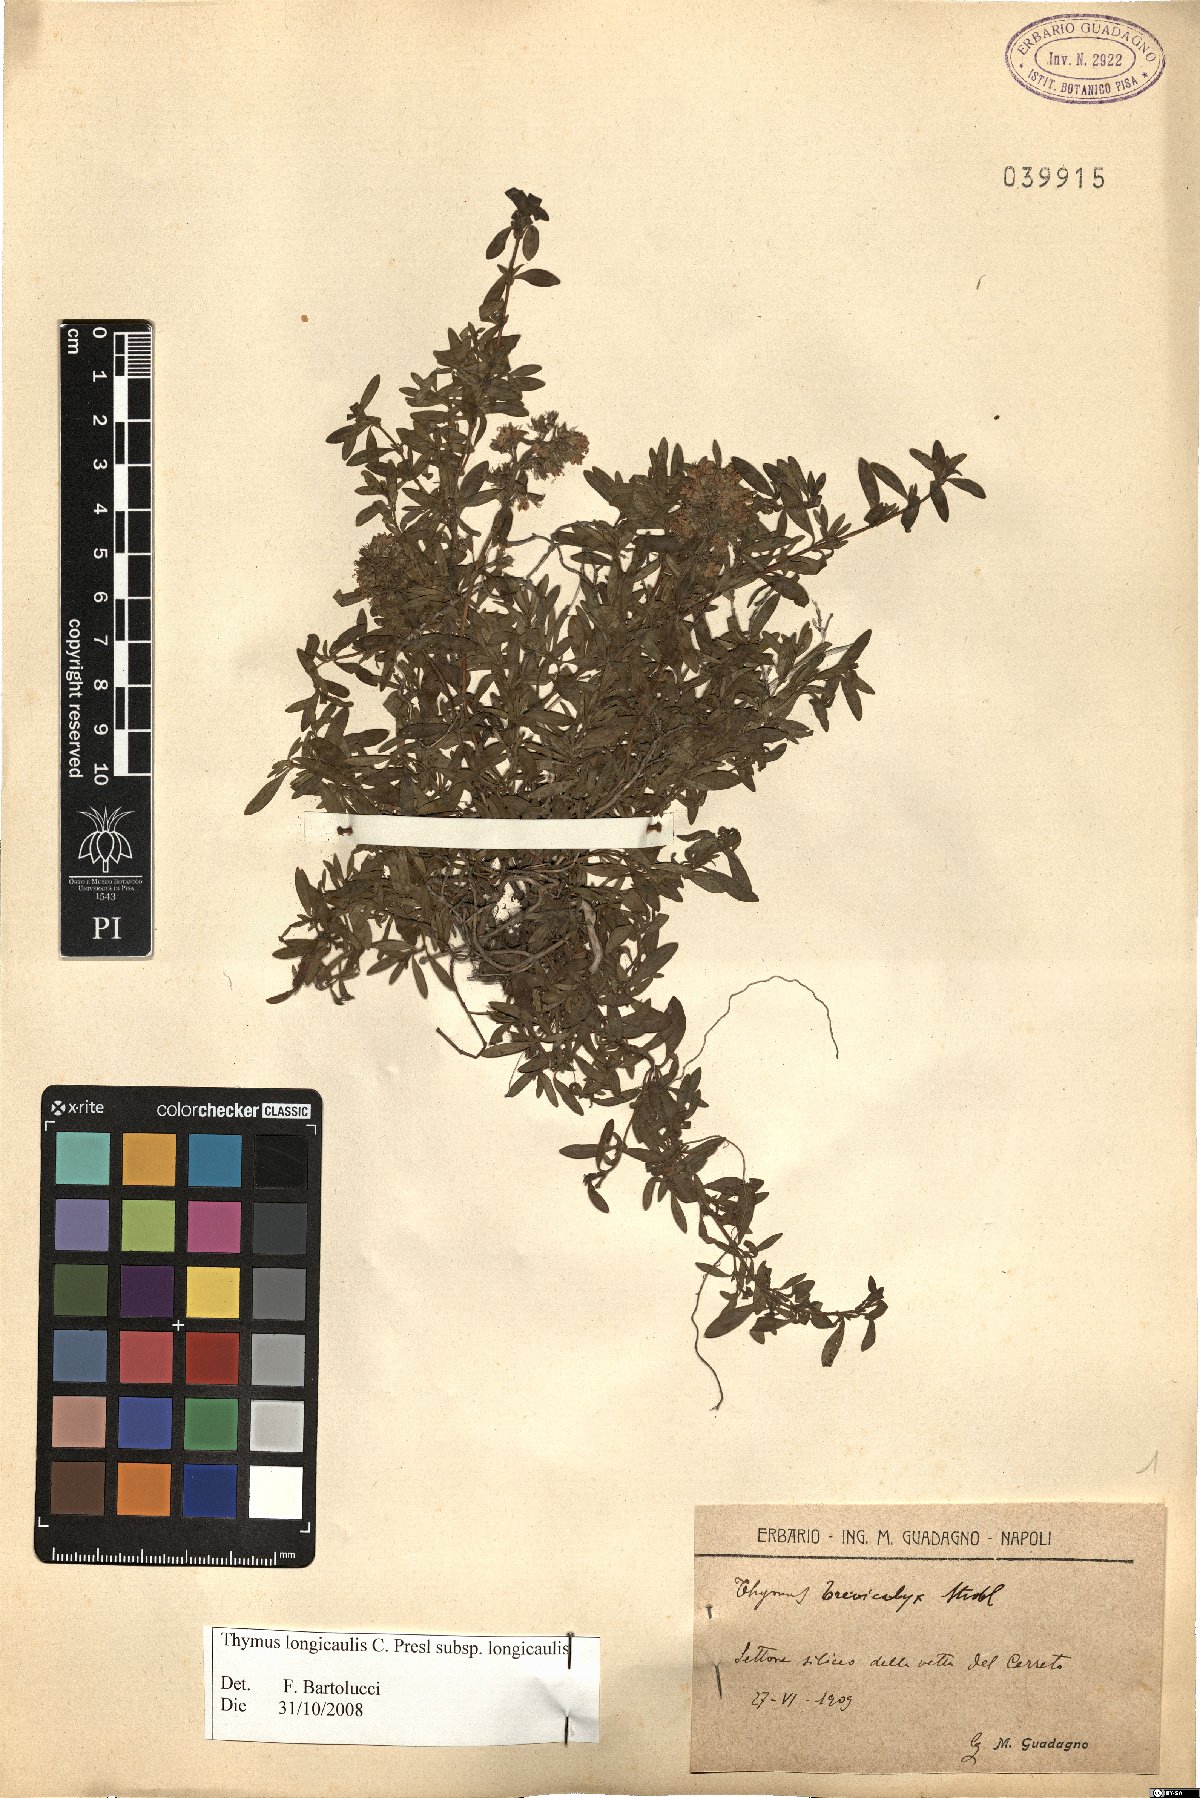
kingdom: Plantae
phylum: Tracheophyta
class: Magnoliopsida
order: Lamiales
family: Lamiaceae
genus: Thymus
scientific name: Thymus longicaulis
